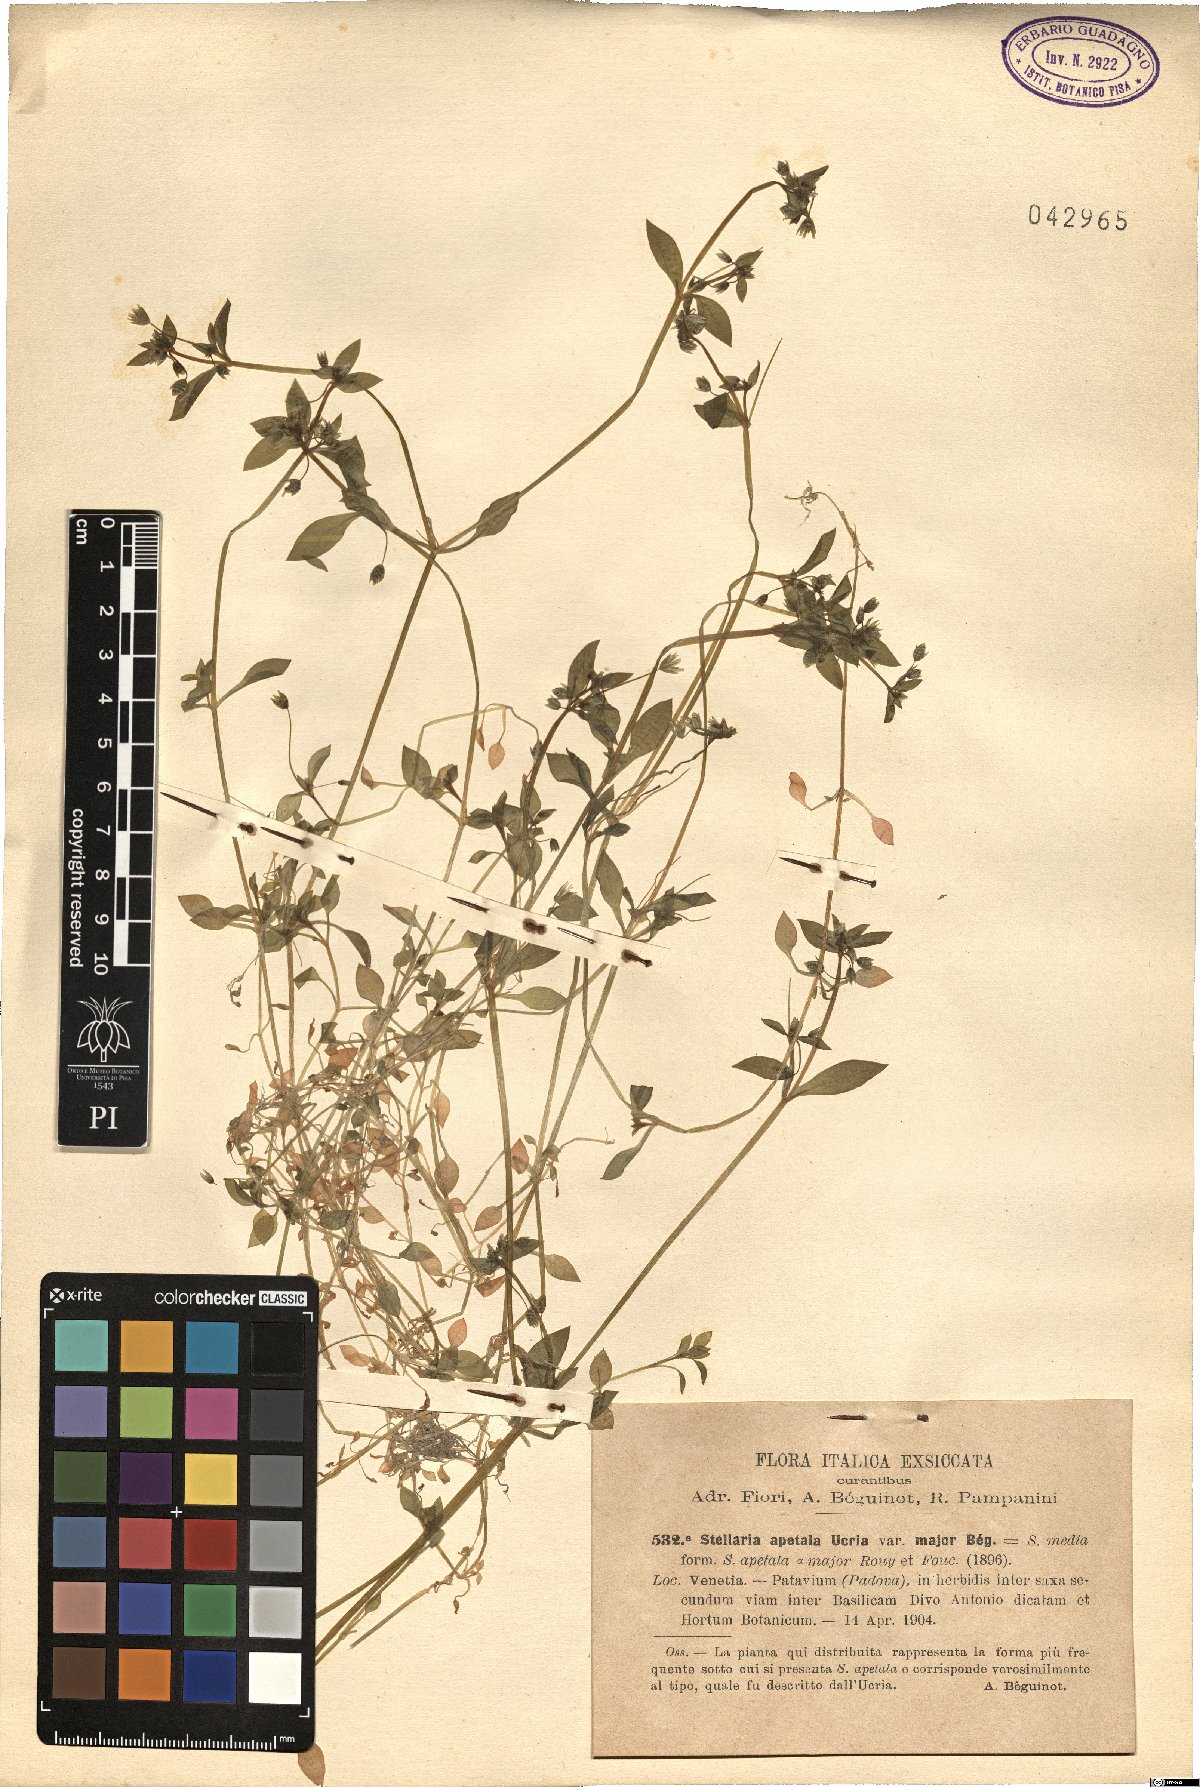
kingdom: Plantae
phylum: Tracheophyta
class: Magnoliopsida
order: Caryophyllales
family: Caryophyllaceae
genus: Stellaria
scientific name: Stellaria apetala
